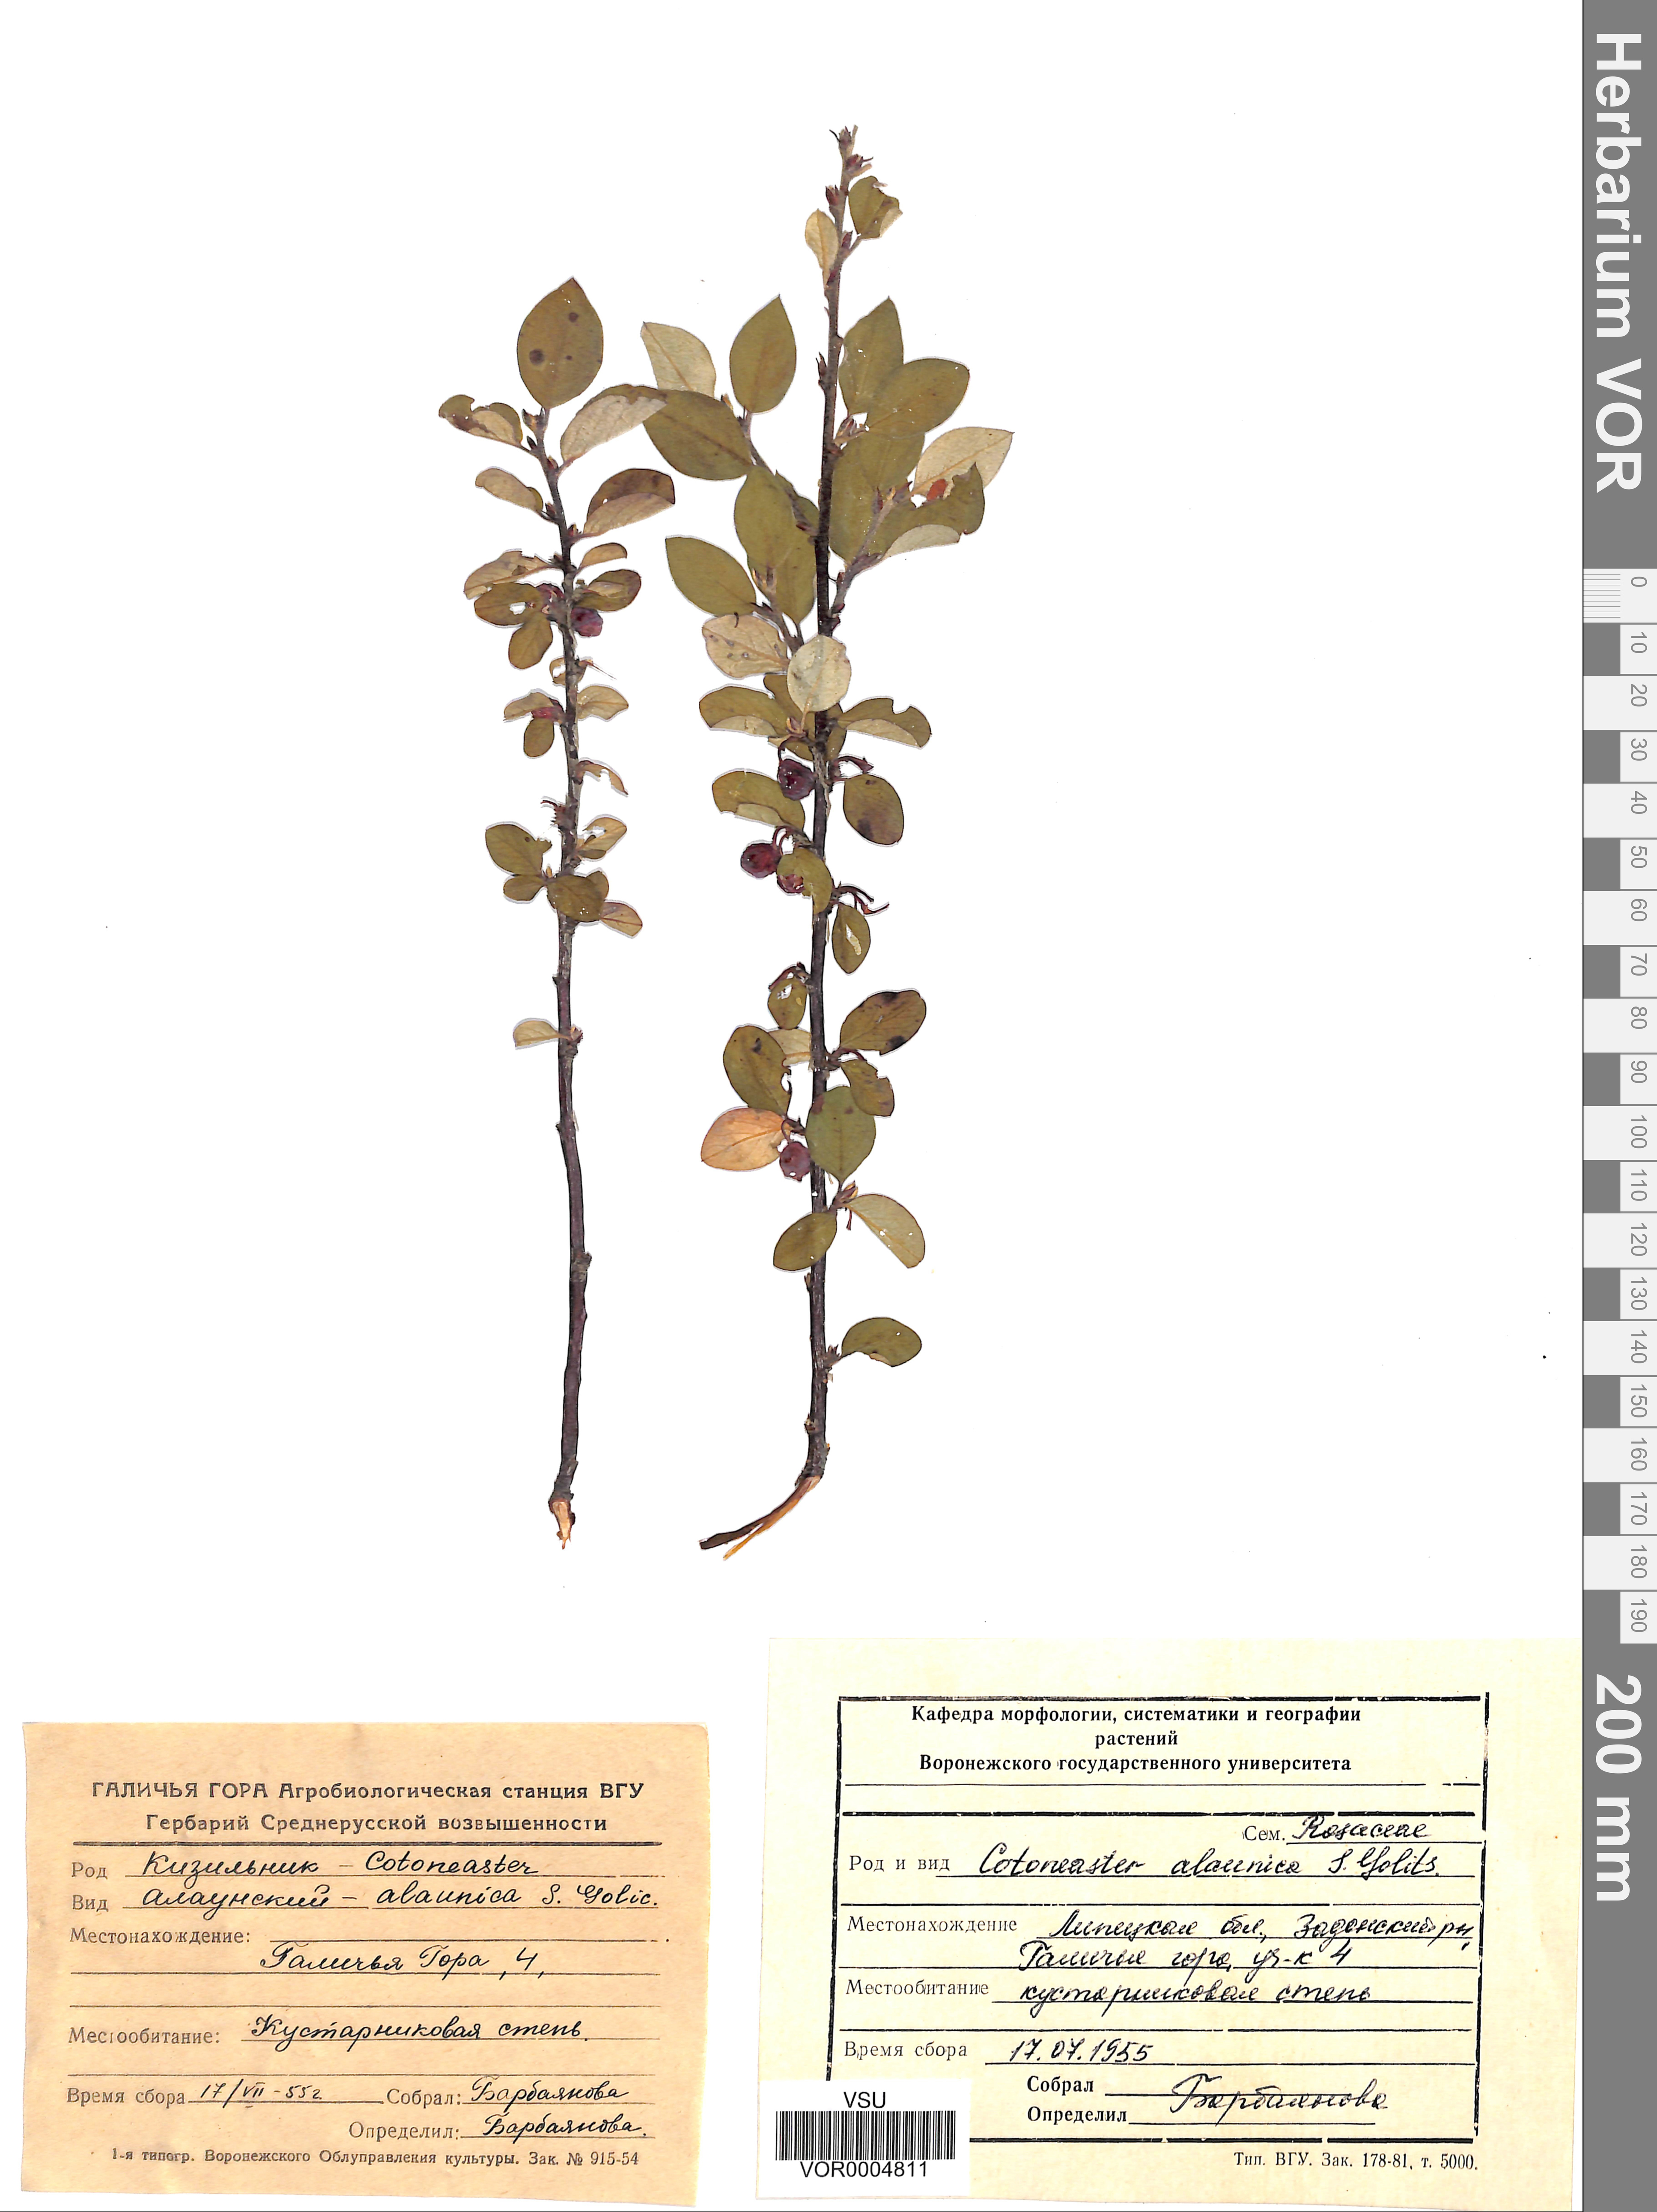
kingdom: Plantae
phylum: Tracheophyta
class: Magnoliopsida
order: Rosales
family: Rosaceae
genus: Cotoneaster
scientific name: Cotoneaster alaunicus
